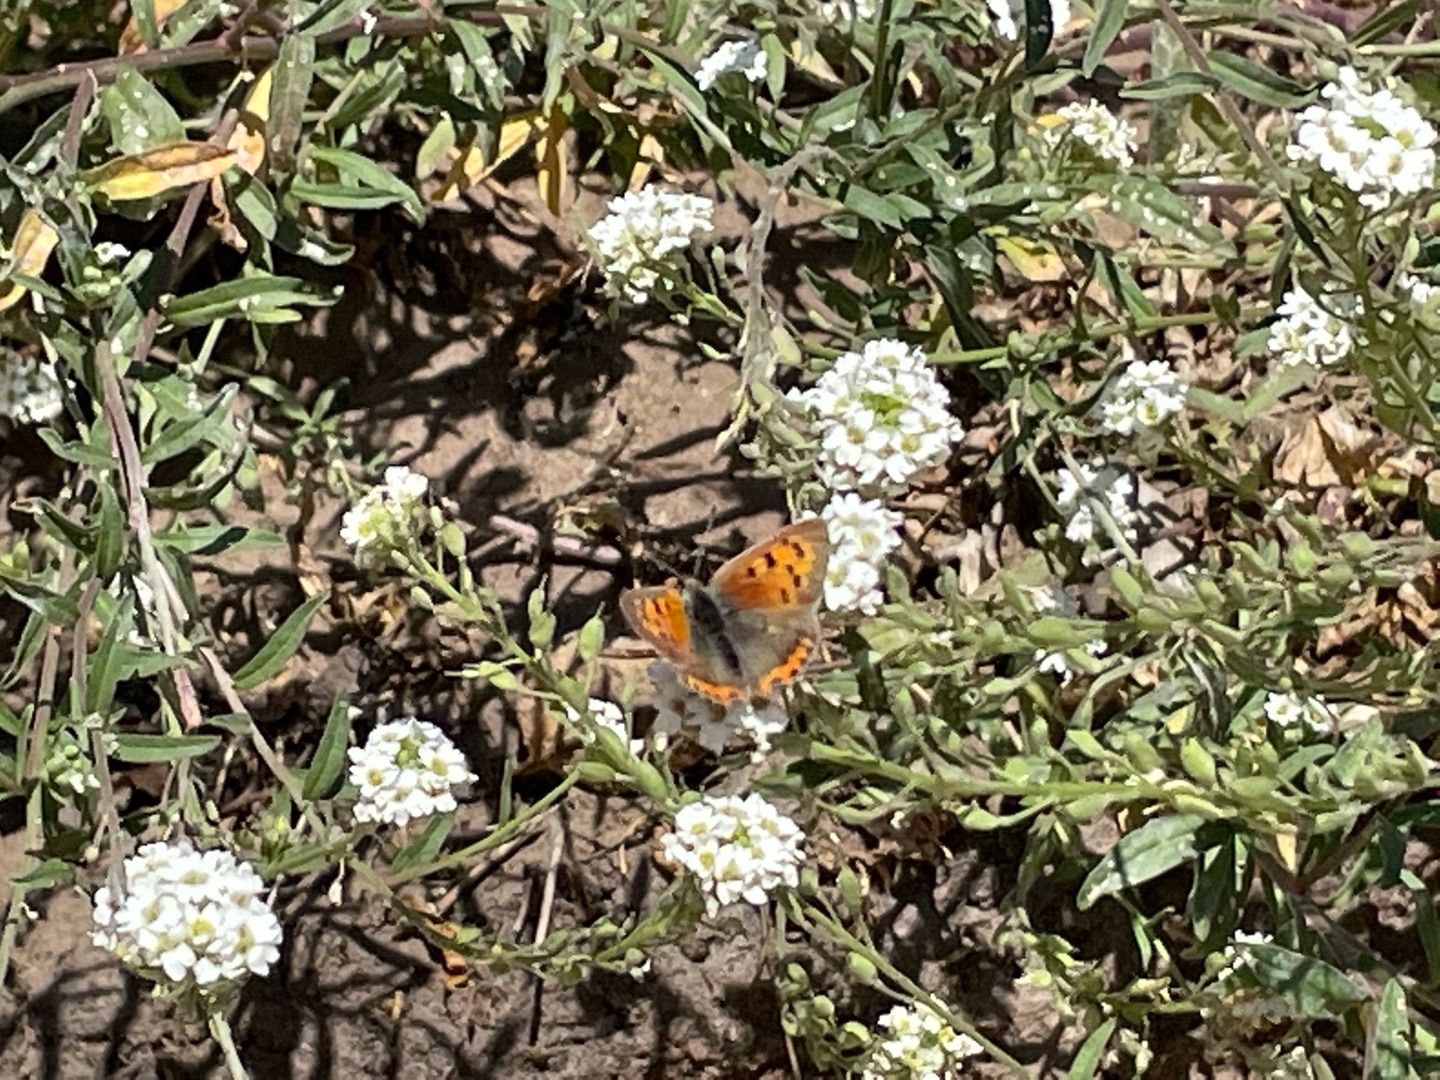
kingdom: Animalia
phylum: Arthropoda
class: Insecta
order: Lepidoptera
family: Lycaenidae
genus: Lycaena
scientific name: Lycaena phlaeas
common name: Lille ildfugl
